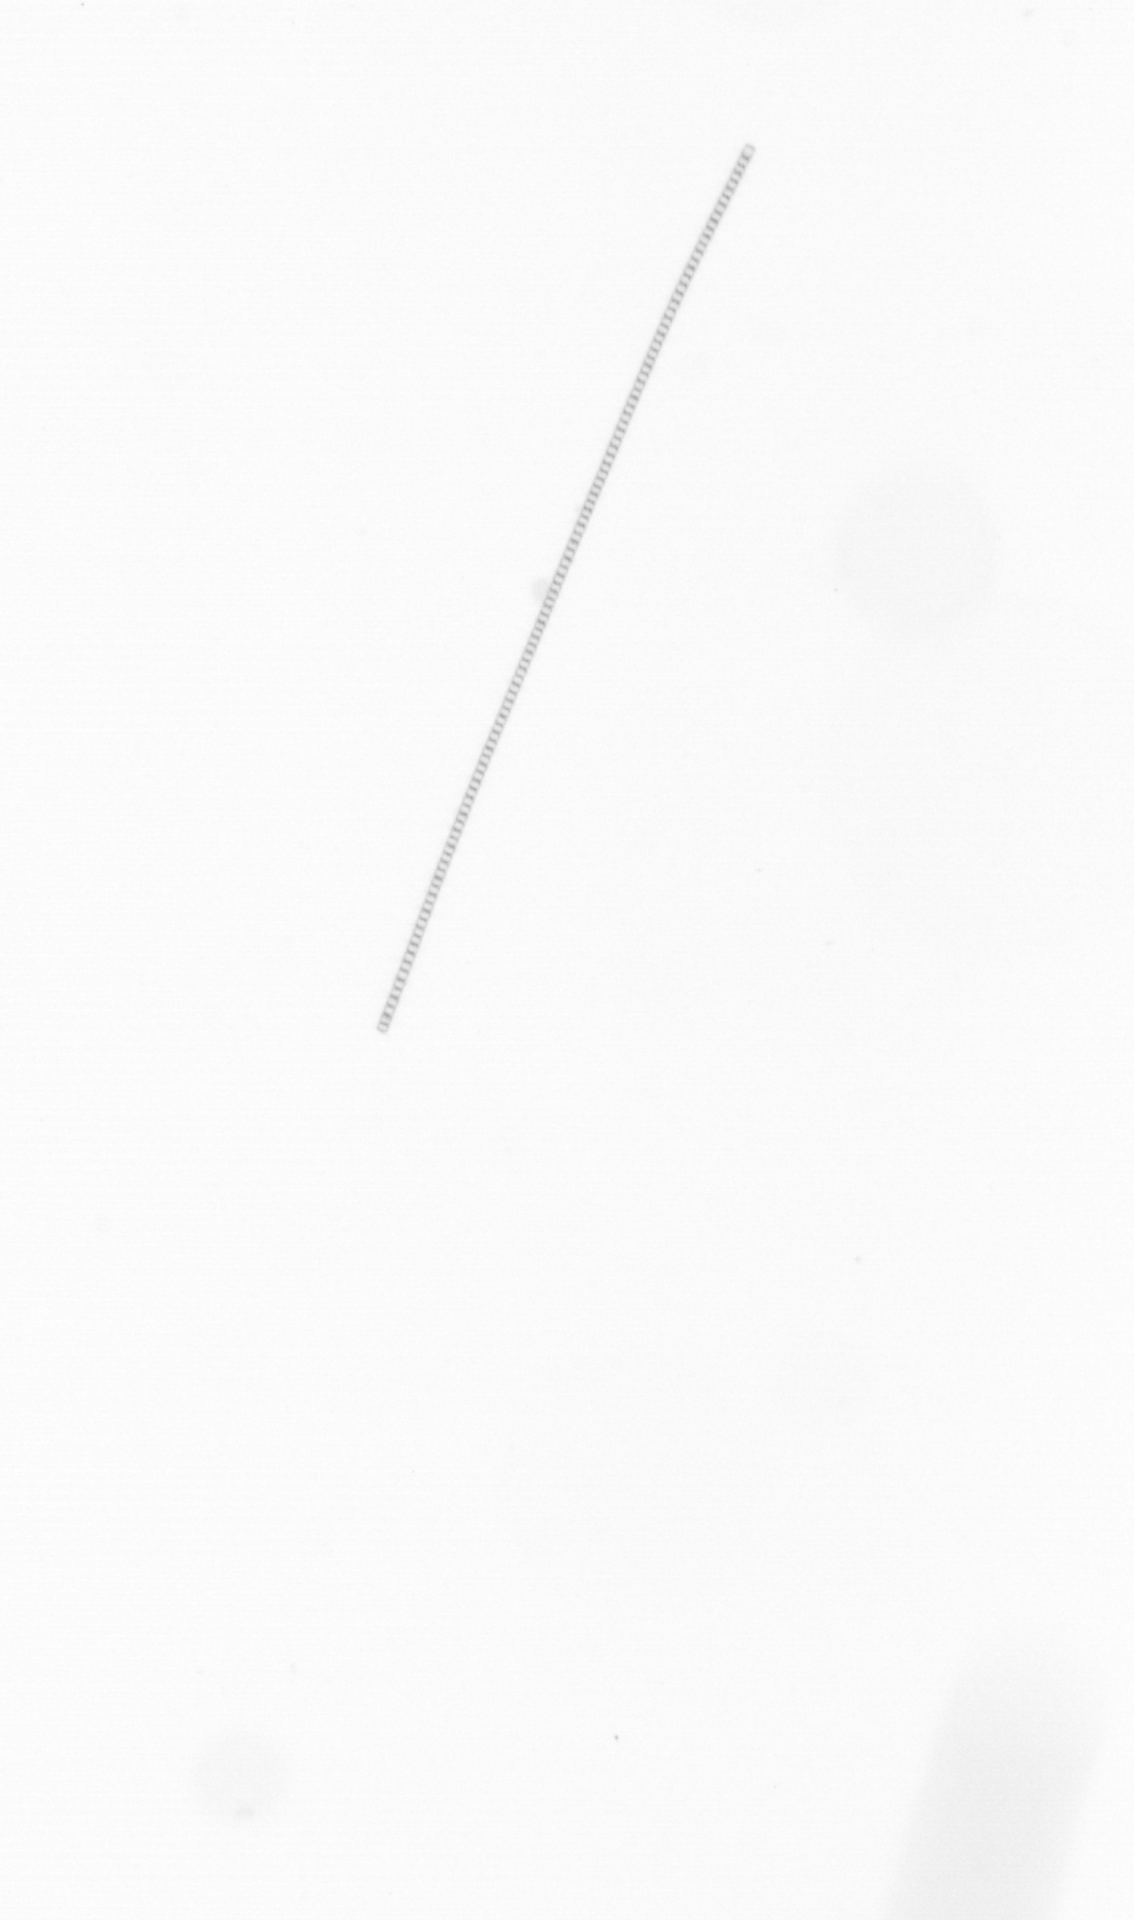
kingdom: Chromista
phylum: Ochrophyta
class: Bacillariophyceae
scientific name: Bacillariophyceae
